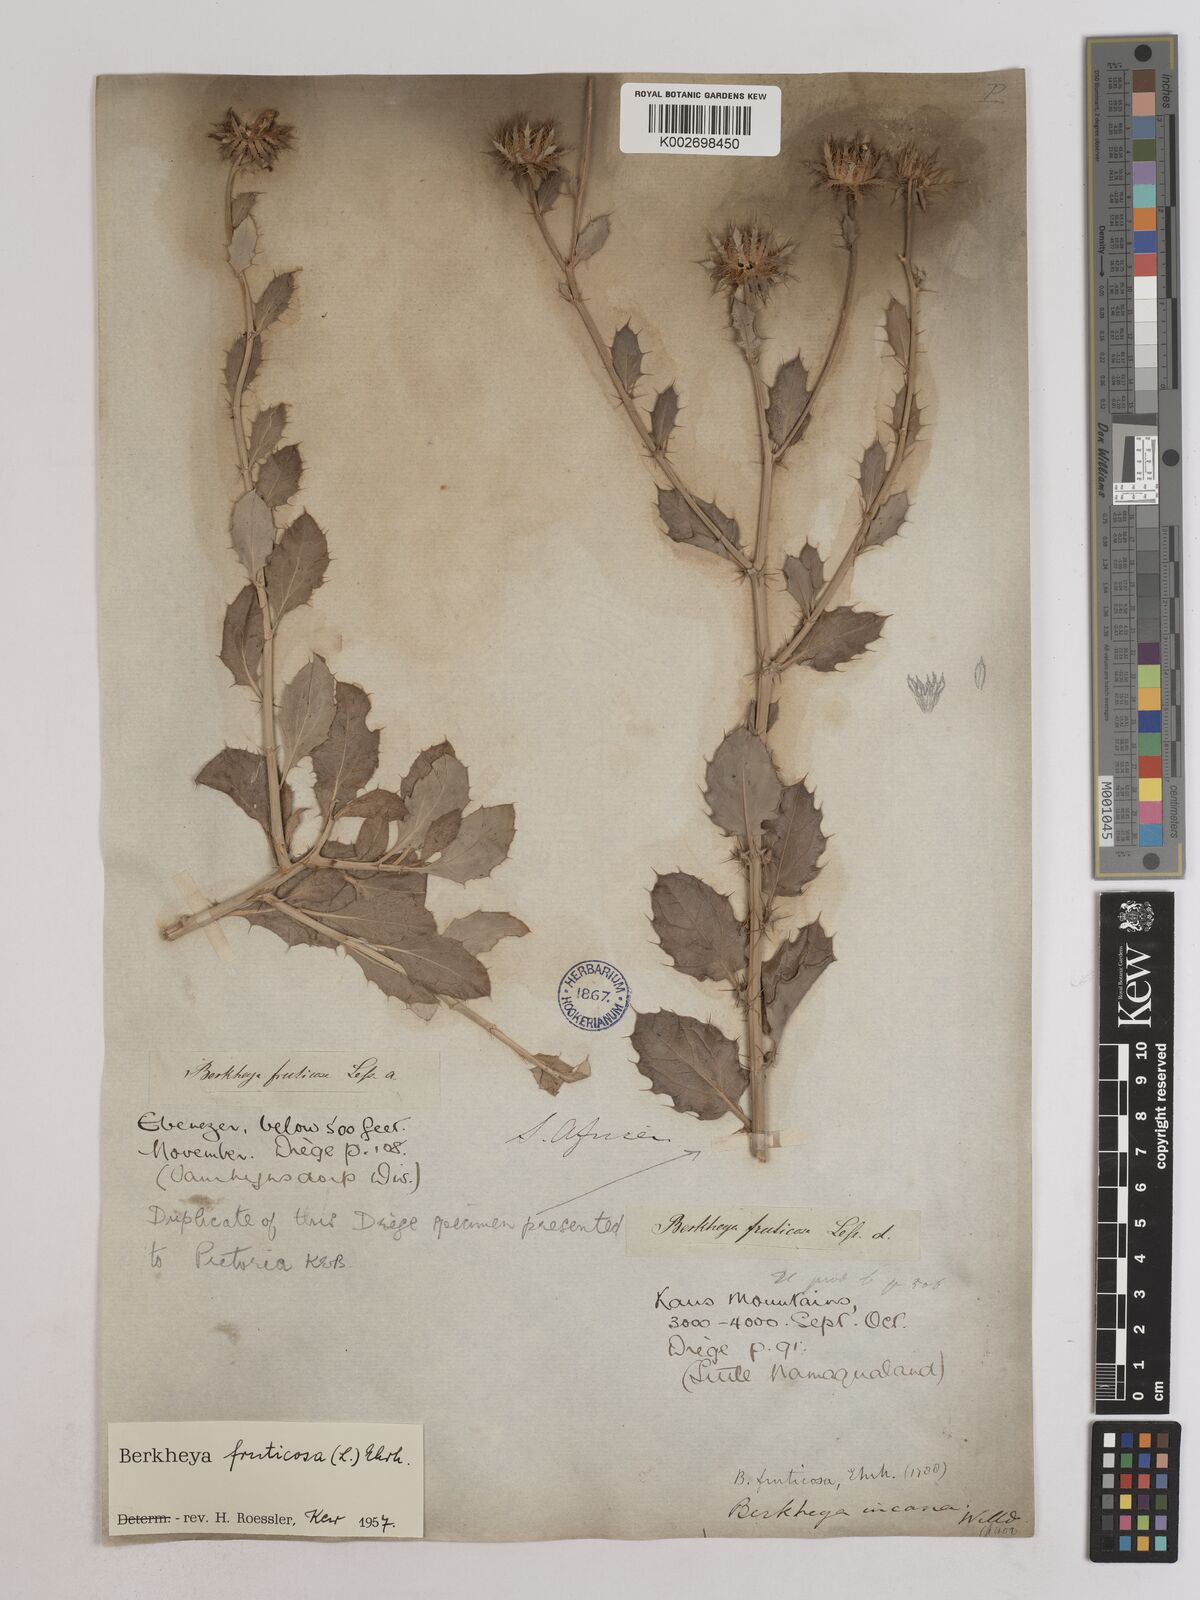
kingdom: Plantae
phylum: Tracheophyta
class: Magnoliopsida
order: Asterales
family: Asteraceae
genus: Berkheya
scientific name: Berkheya fruticosa
